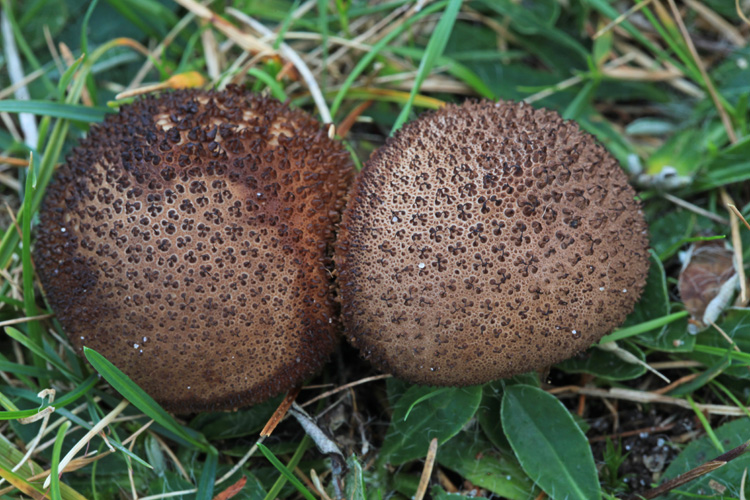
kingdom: Fungi
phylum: Basidiomycota
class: Agaricomycetes
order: Agaricales
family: Lycoperdaceae
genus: Lycoperdon
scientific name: Lycoperdon nigrescens
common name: sortagtig støvbold
